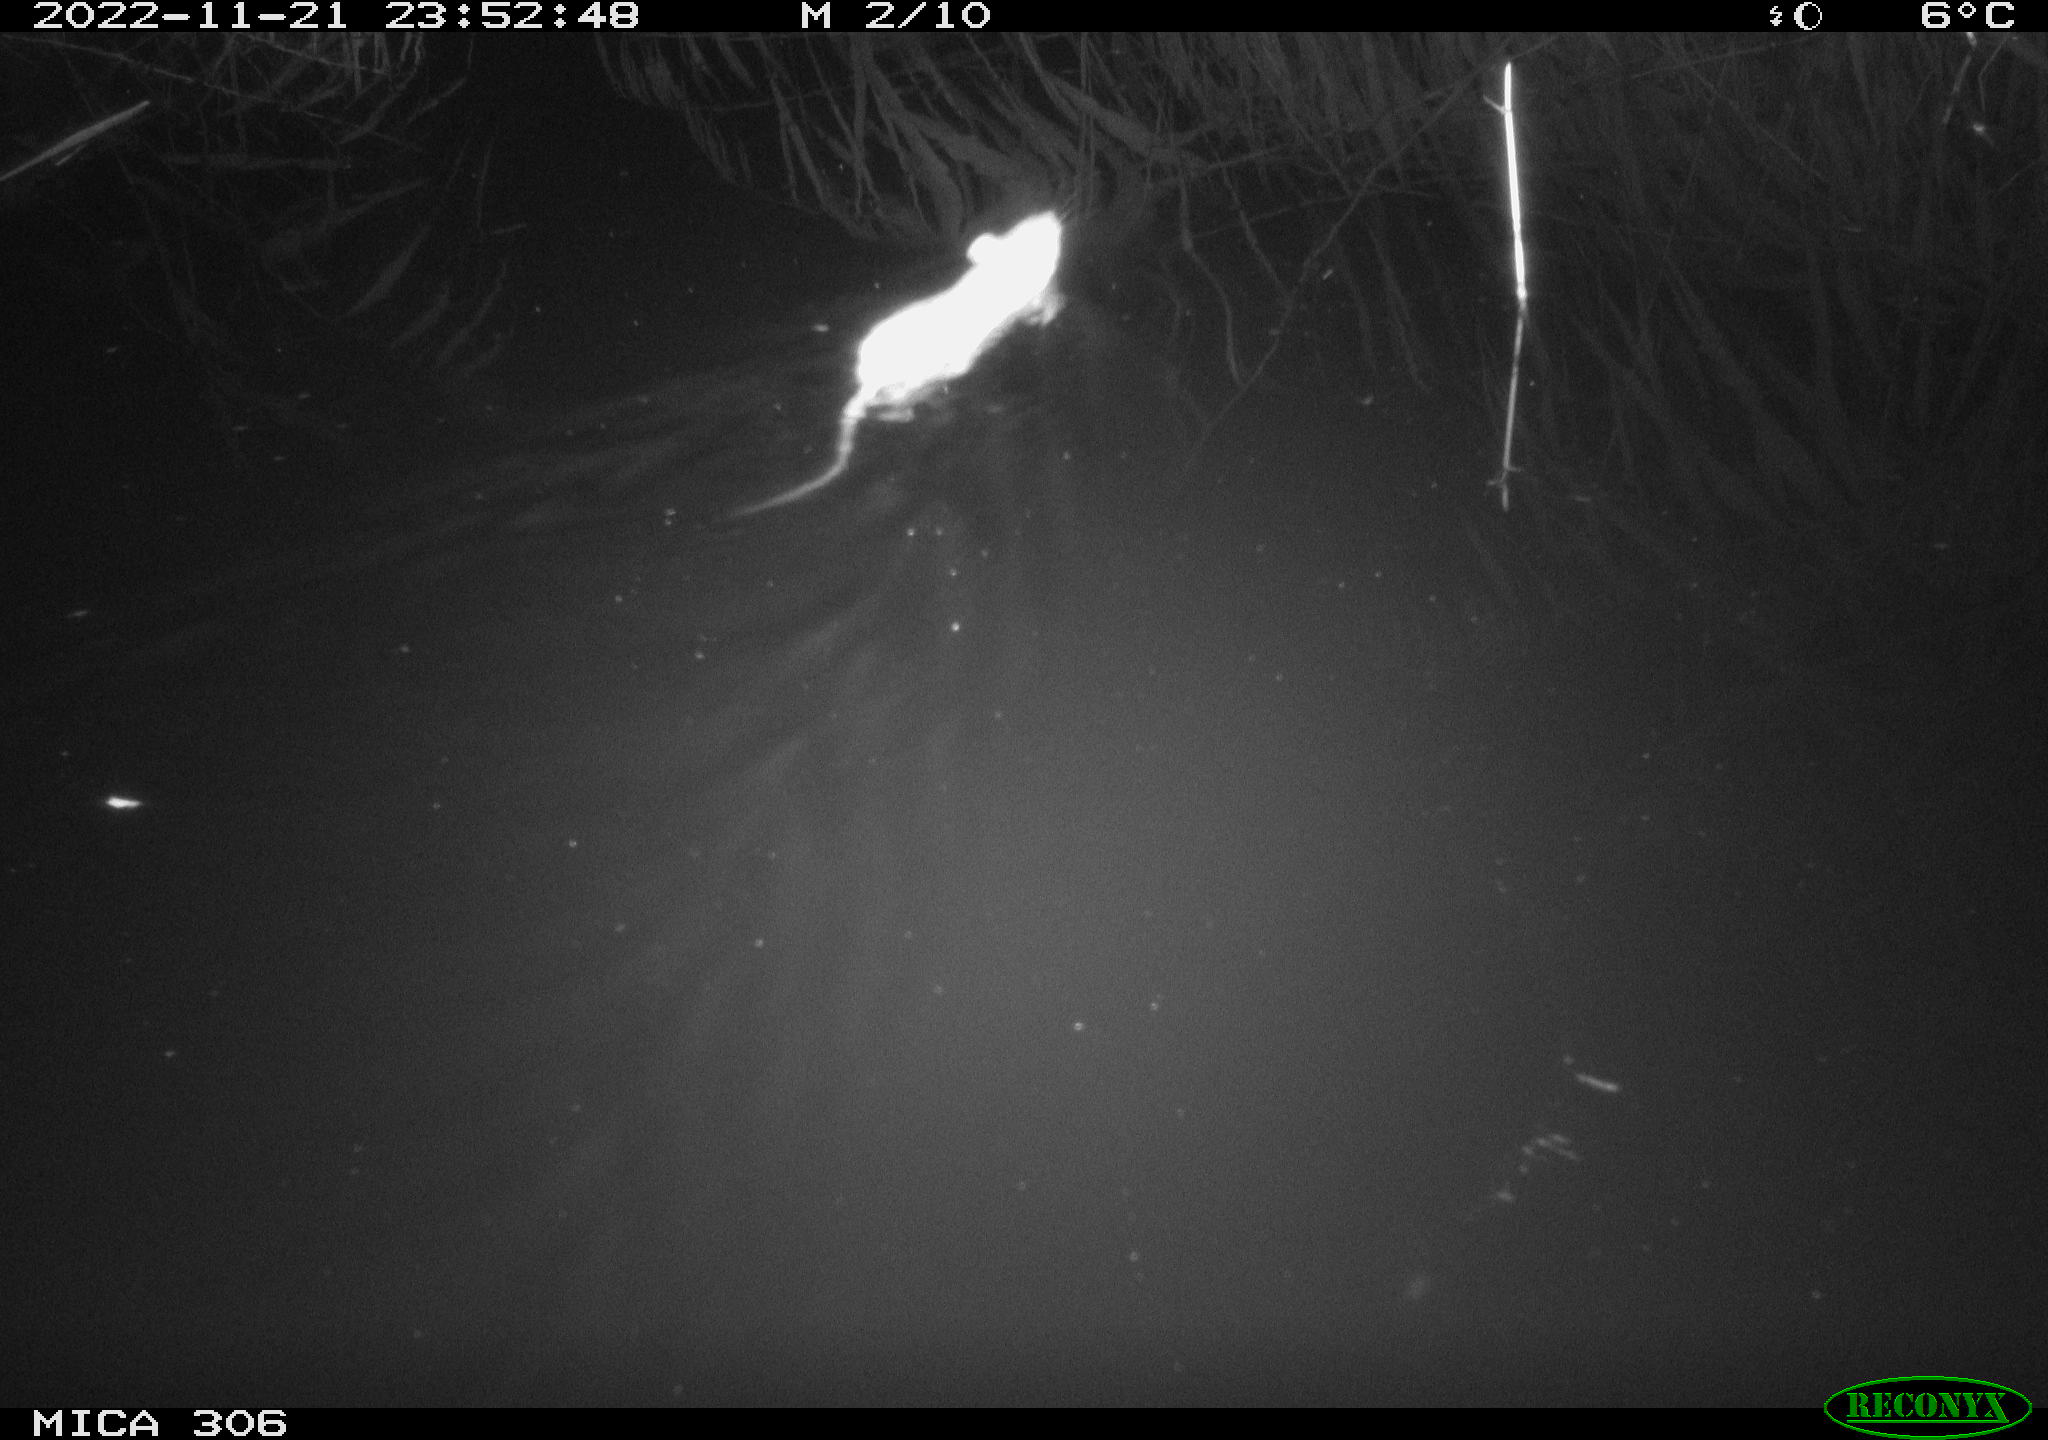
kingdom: Animalia
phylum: Chordata
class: Mammalia
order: Rodentia
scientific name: Rodentia
